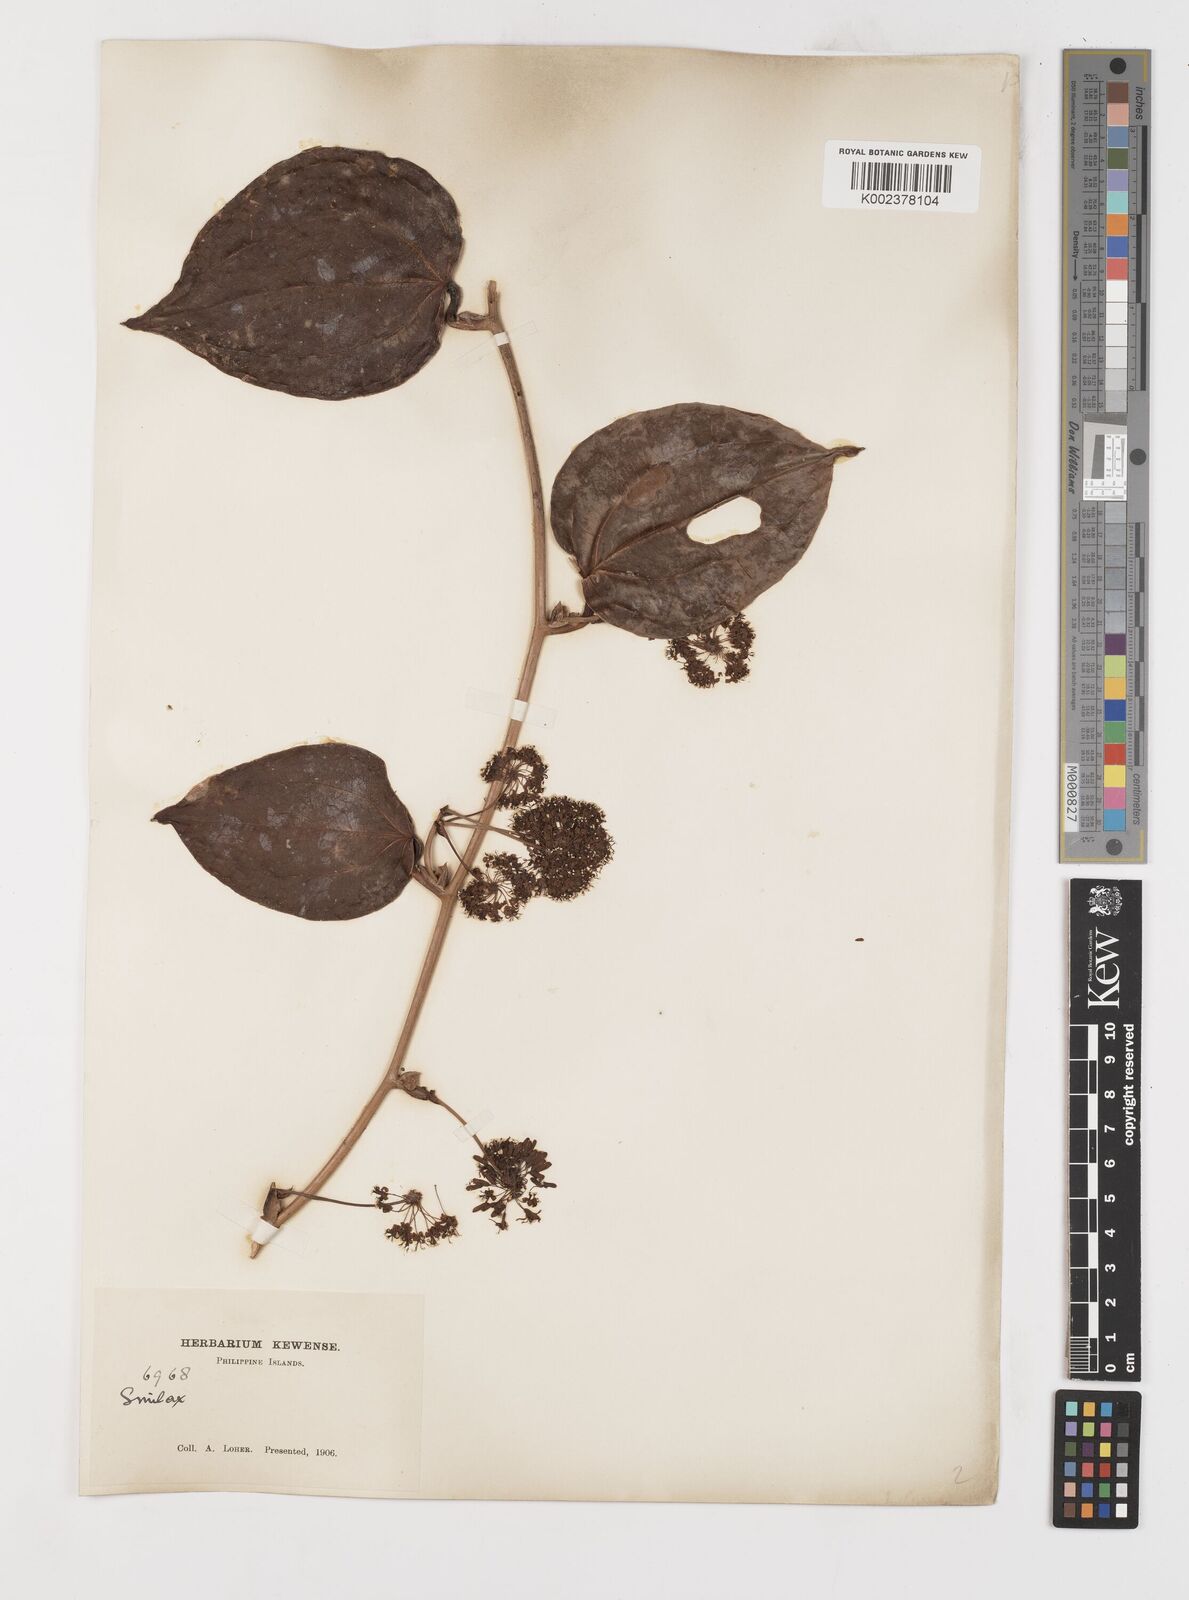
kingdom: Plantae
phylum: Tracheophyta
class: Liliopsida
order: Liliales
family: Smilacaceae
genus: Smilax
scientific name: Smilax
